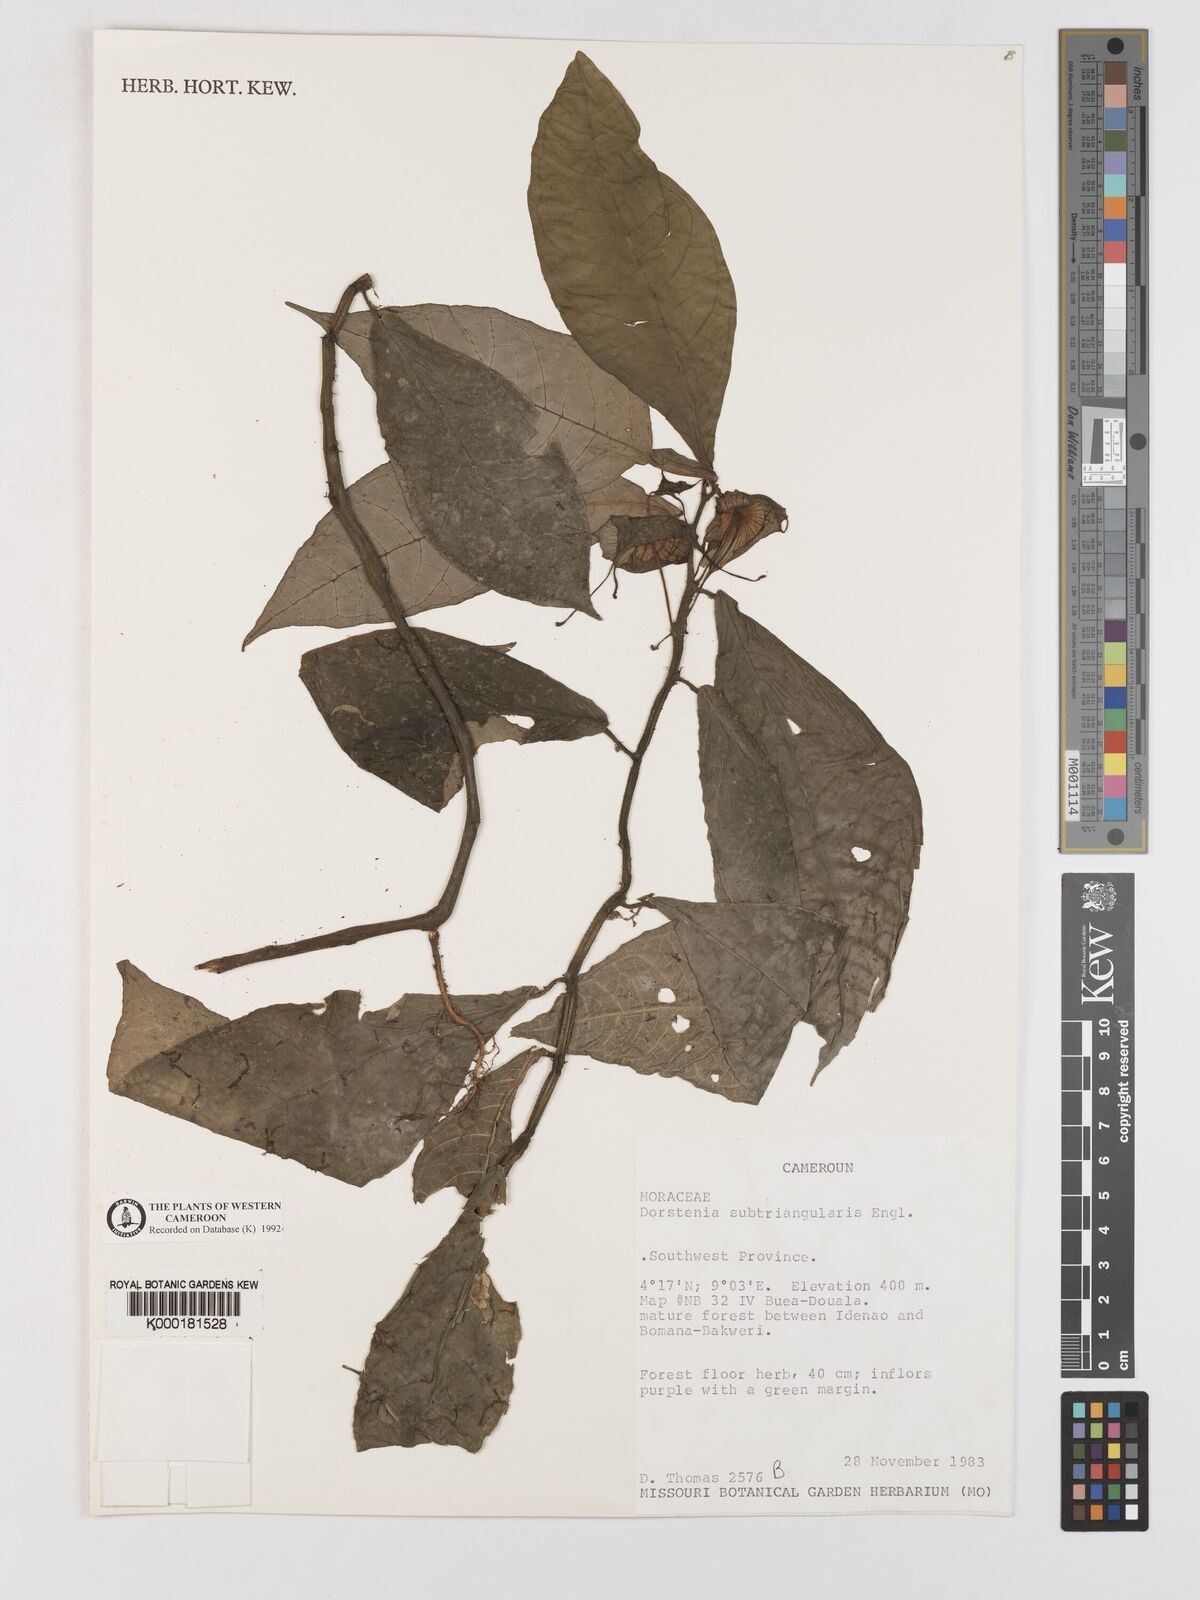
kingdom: Plantae
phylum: Tracheophyta
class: Magnoliopsida
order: Rosales
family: Moraceae
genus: Dorstenia
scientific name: Dorstenia barteri
